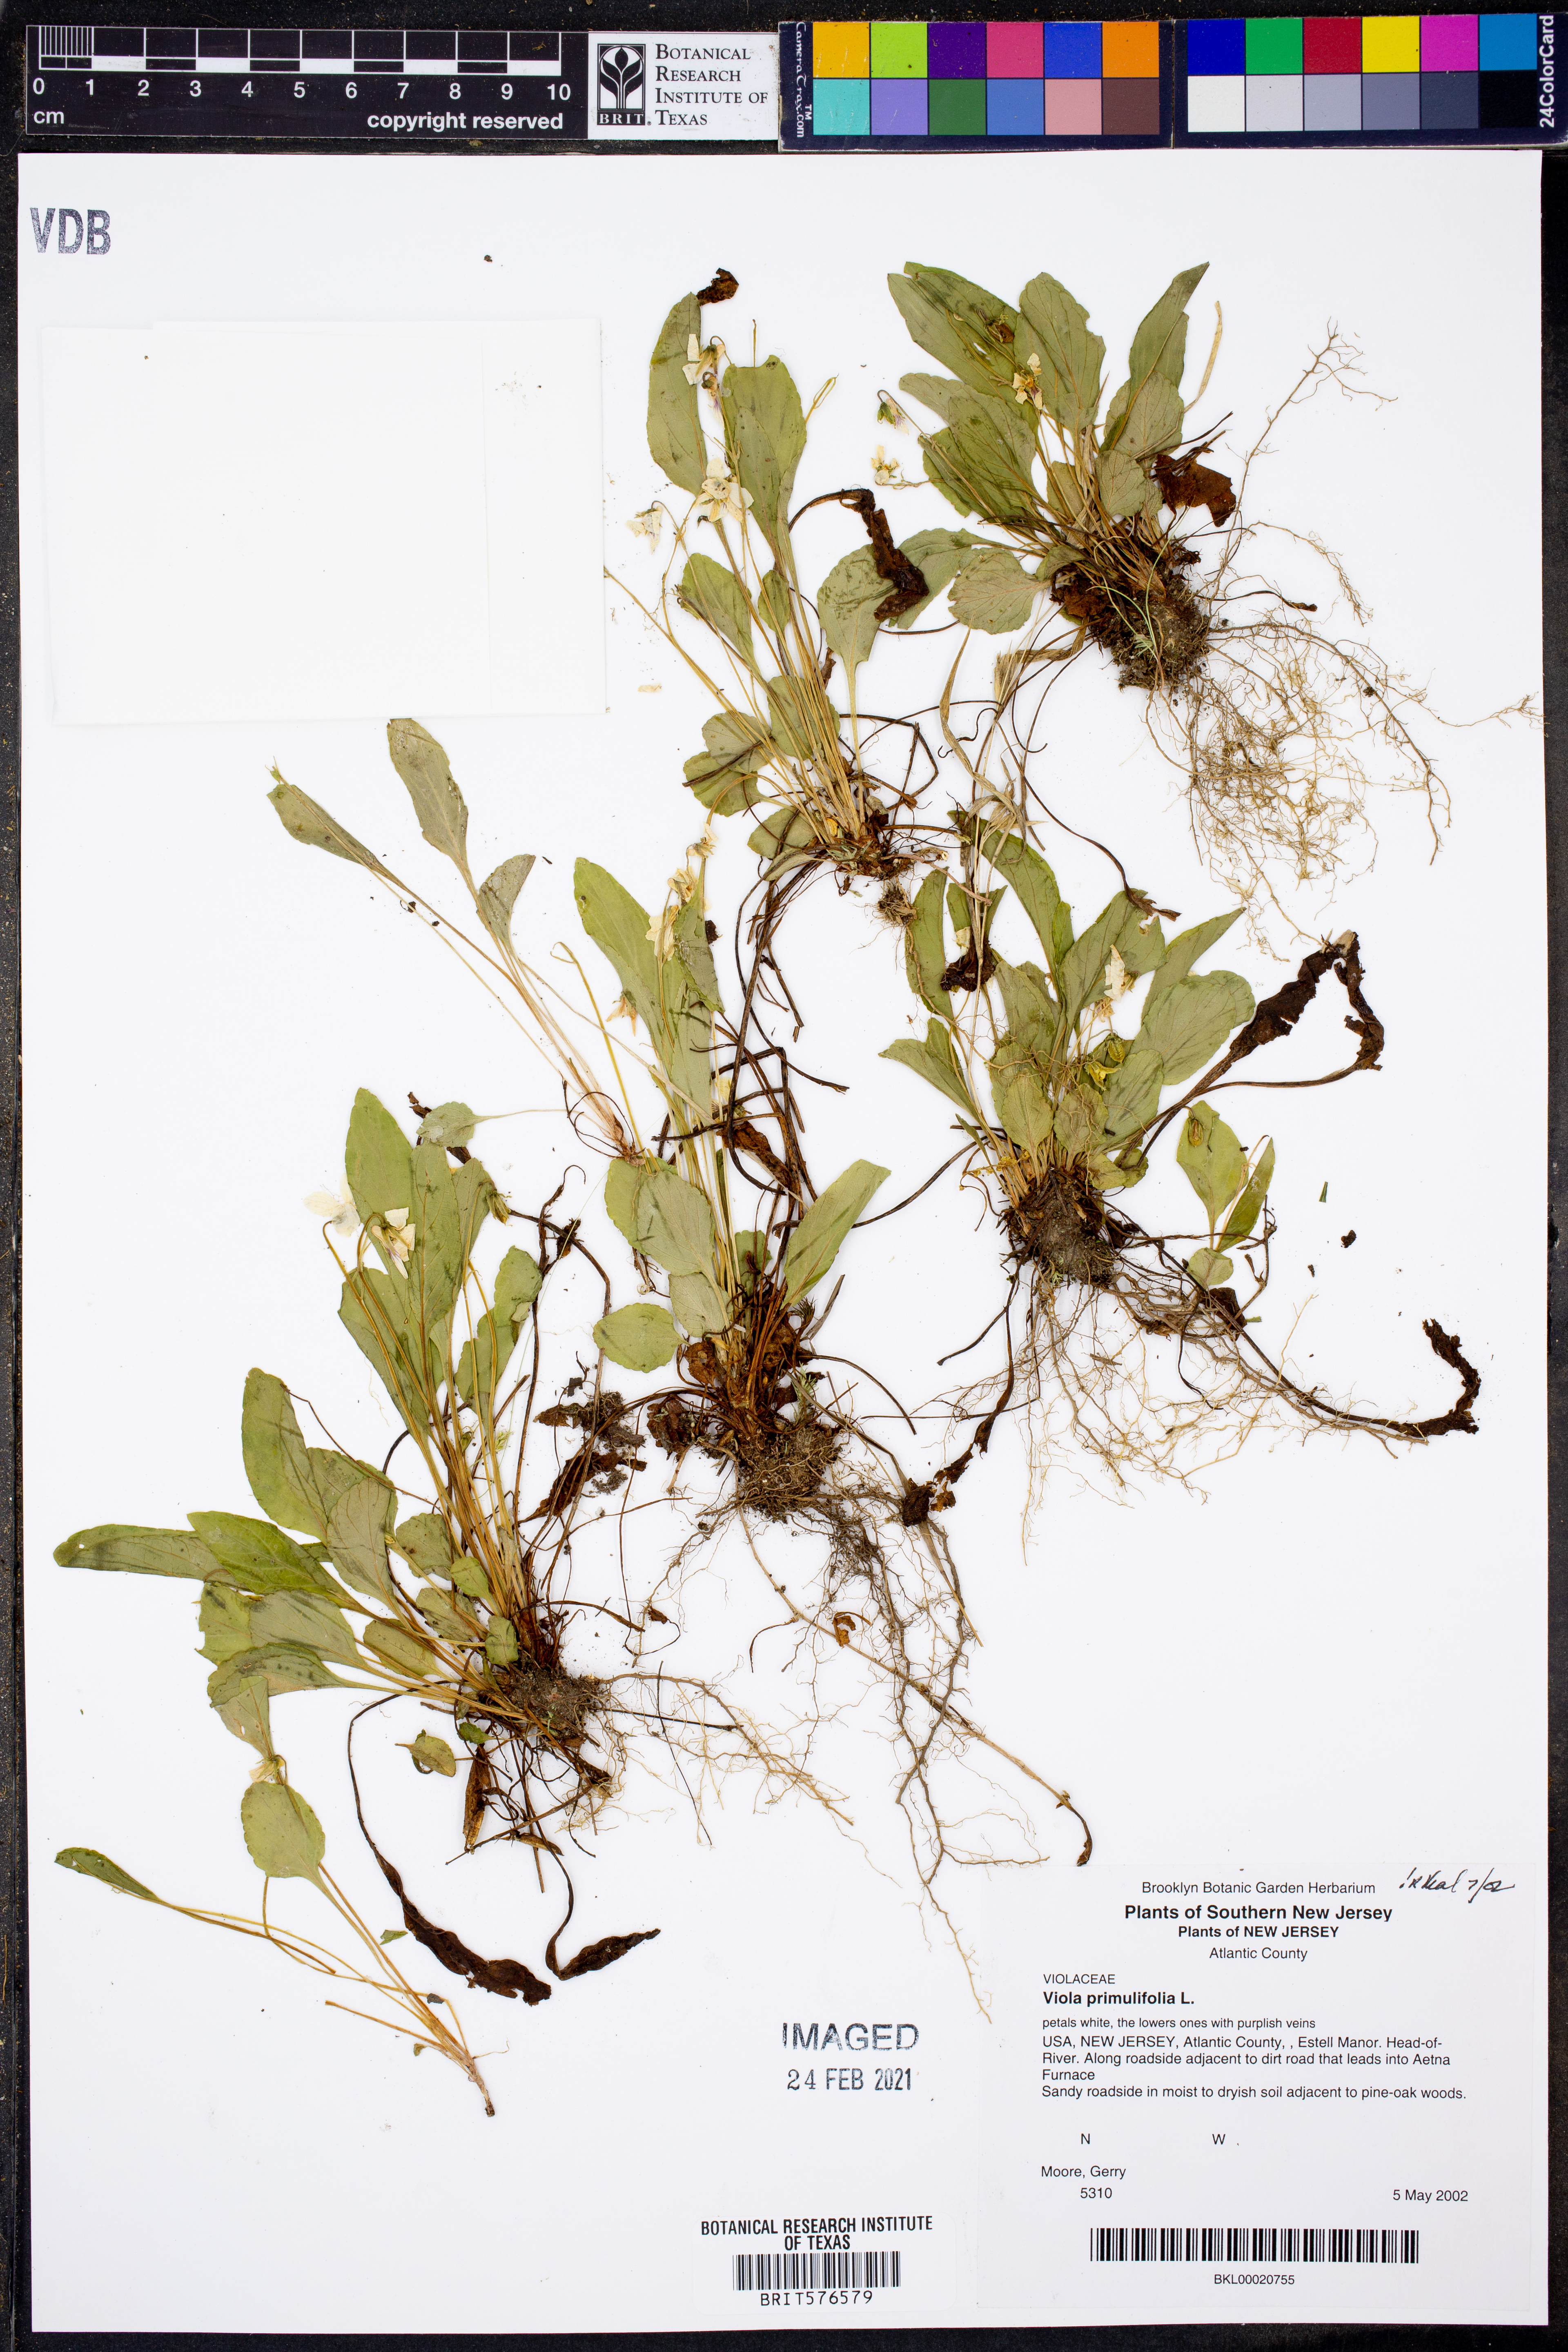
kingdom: Plantae
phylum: Tracheophyta
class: Magnoliopsida
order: Malpighiales
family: Violaceae
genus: Viola
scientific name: Viola primulifolia
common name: Primrose-leaf violet
